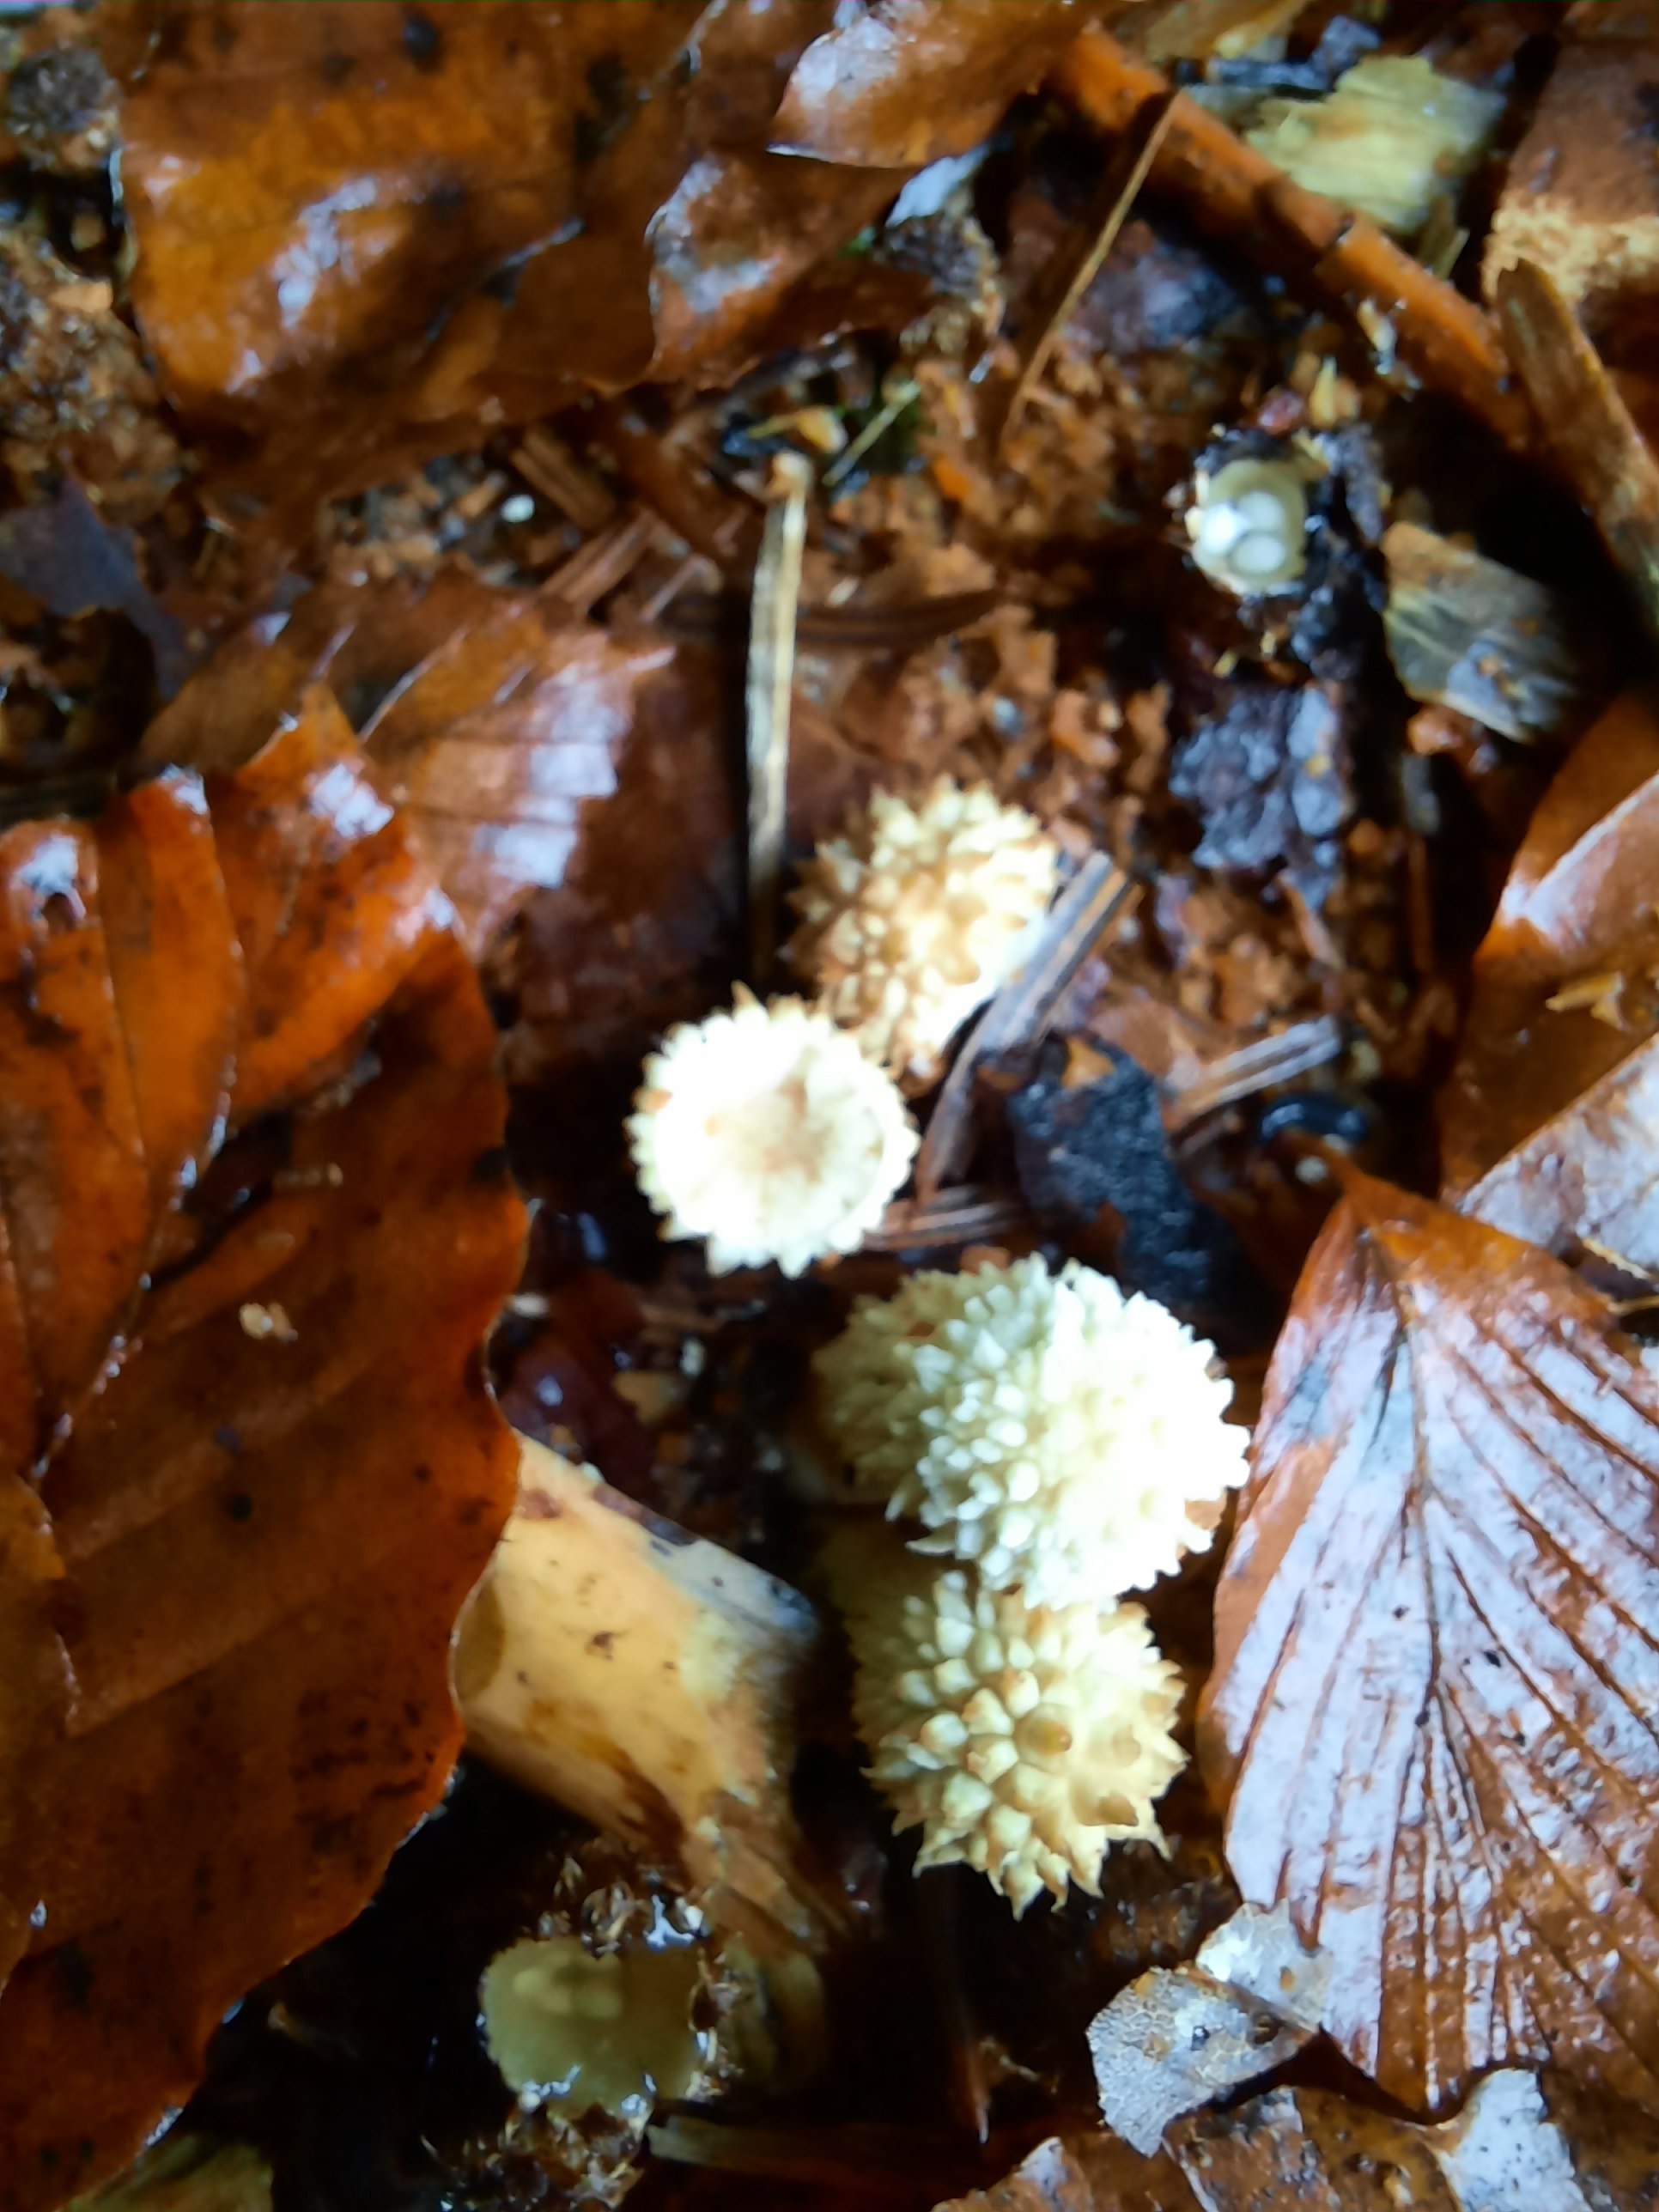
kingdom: Fungi
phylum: Basidiomycota
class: Agaricomycetes
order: Agaricales
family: Agaricaceae
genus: Lycoperdon
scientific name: Lycoperdon
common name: støvbold
